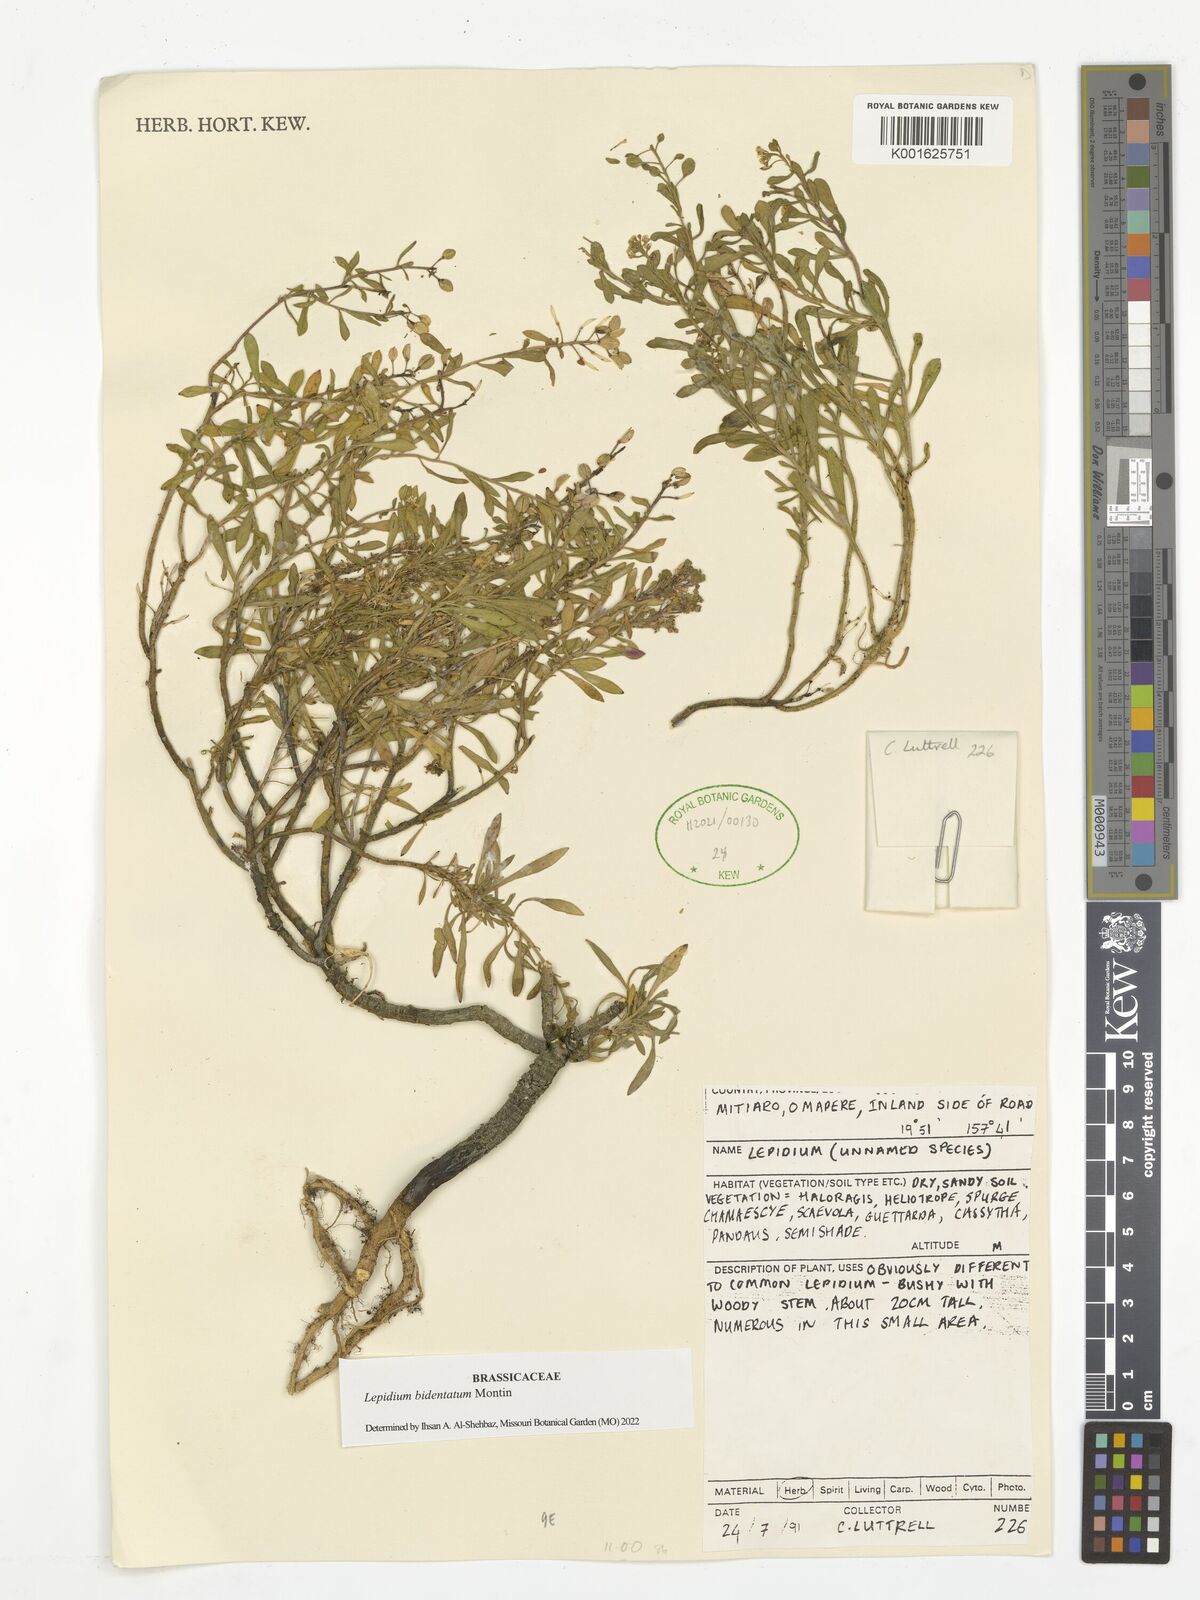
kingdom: Plantae
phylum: Tracheophyta
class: Magnoliopsida
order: Brassicales
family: Brassicaceae
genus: Lepidium
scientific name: Lepidium bidentatum
